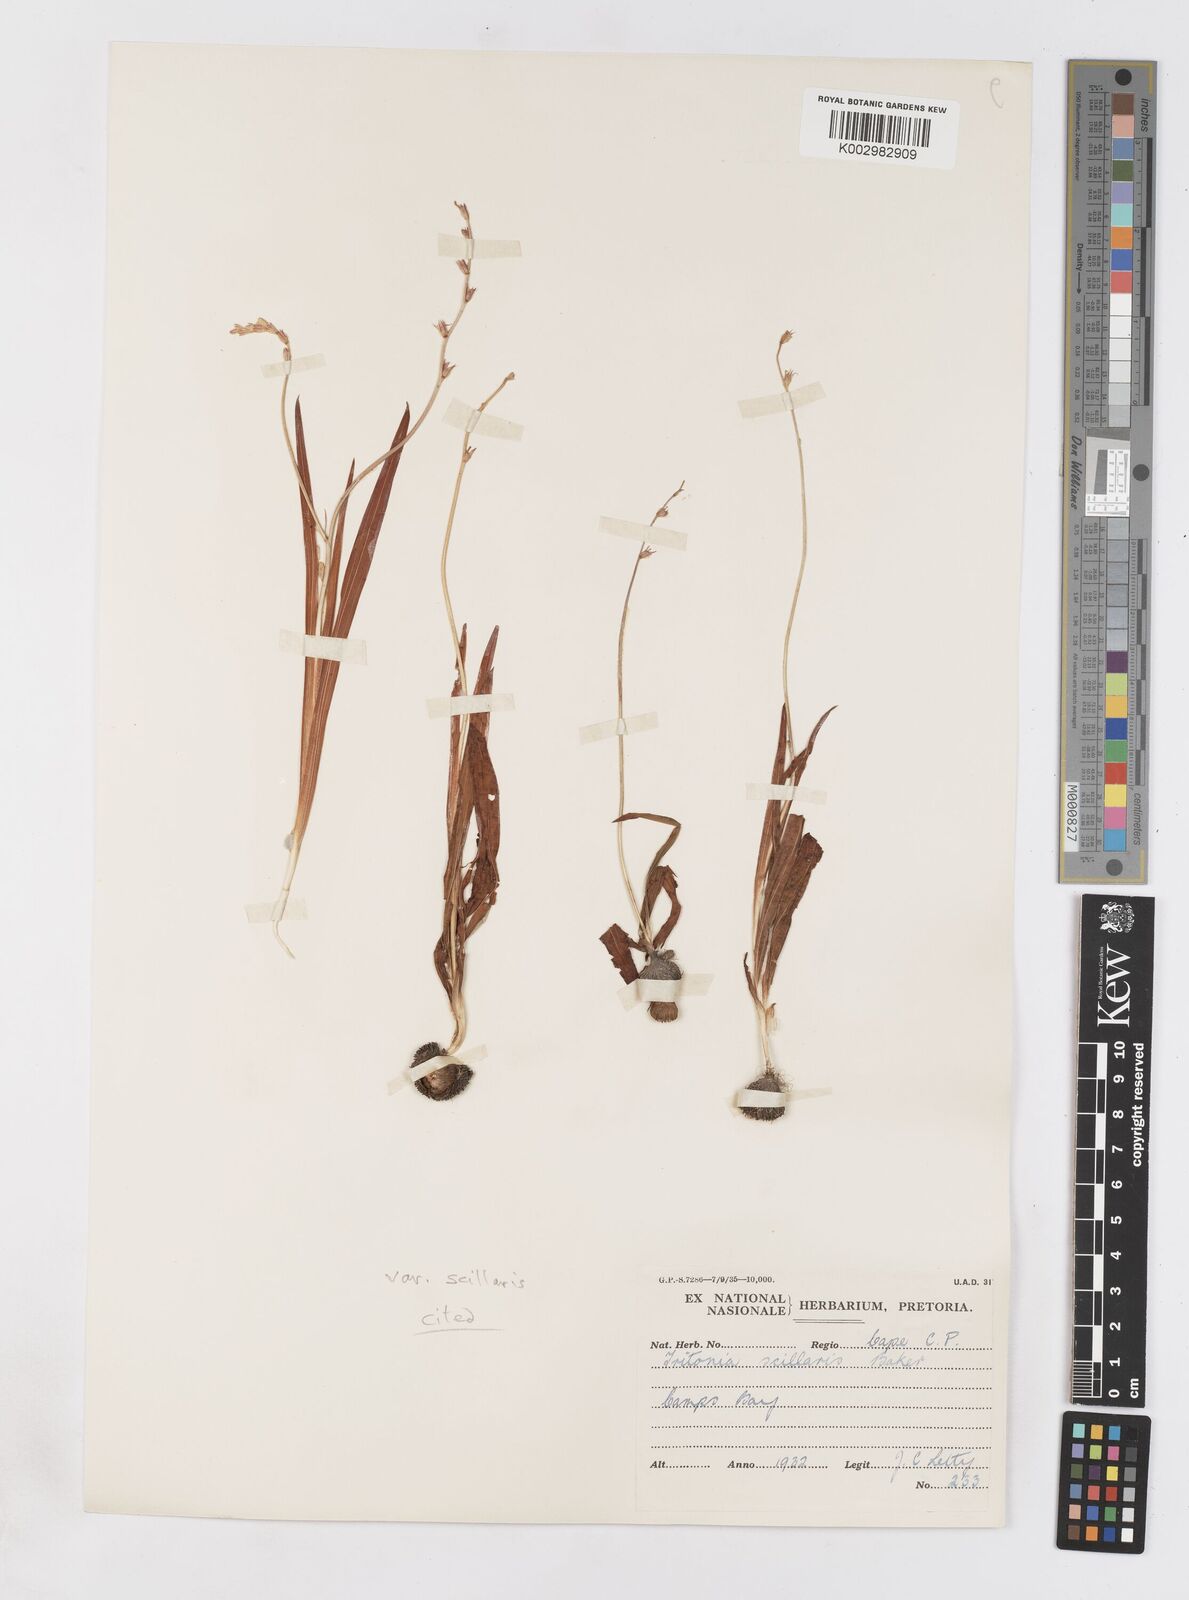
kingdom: Plantae
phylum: Tracheophyta
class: Liliopsida
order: Asparagales
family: Iridaceae
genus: Ixia
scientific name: Ixia scillaris
